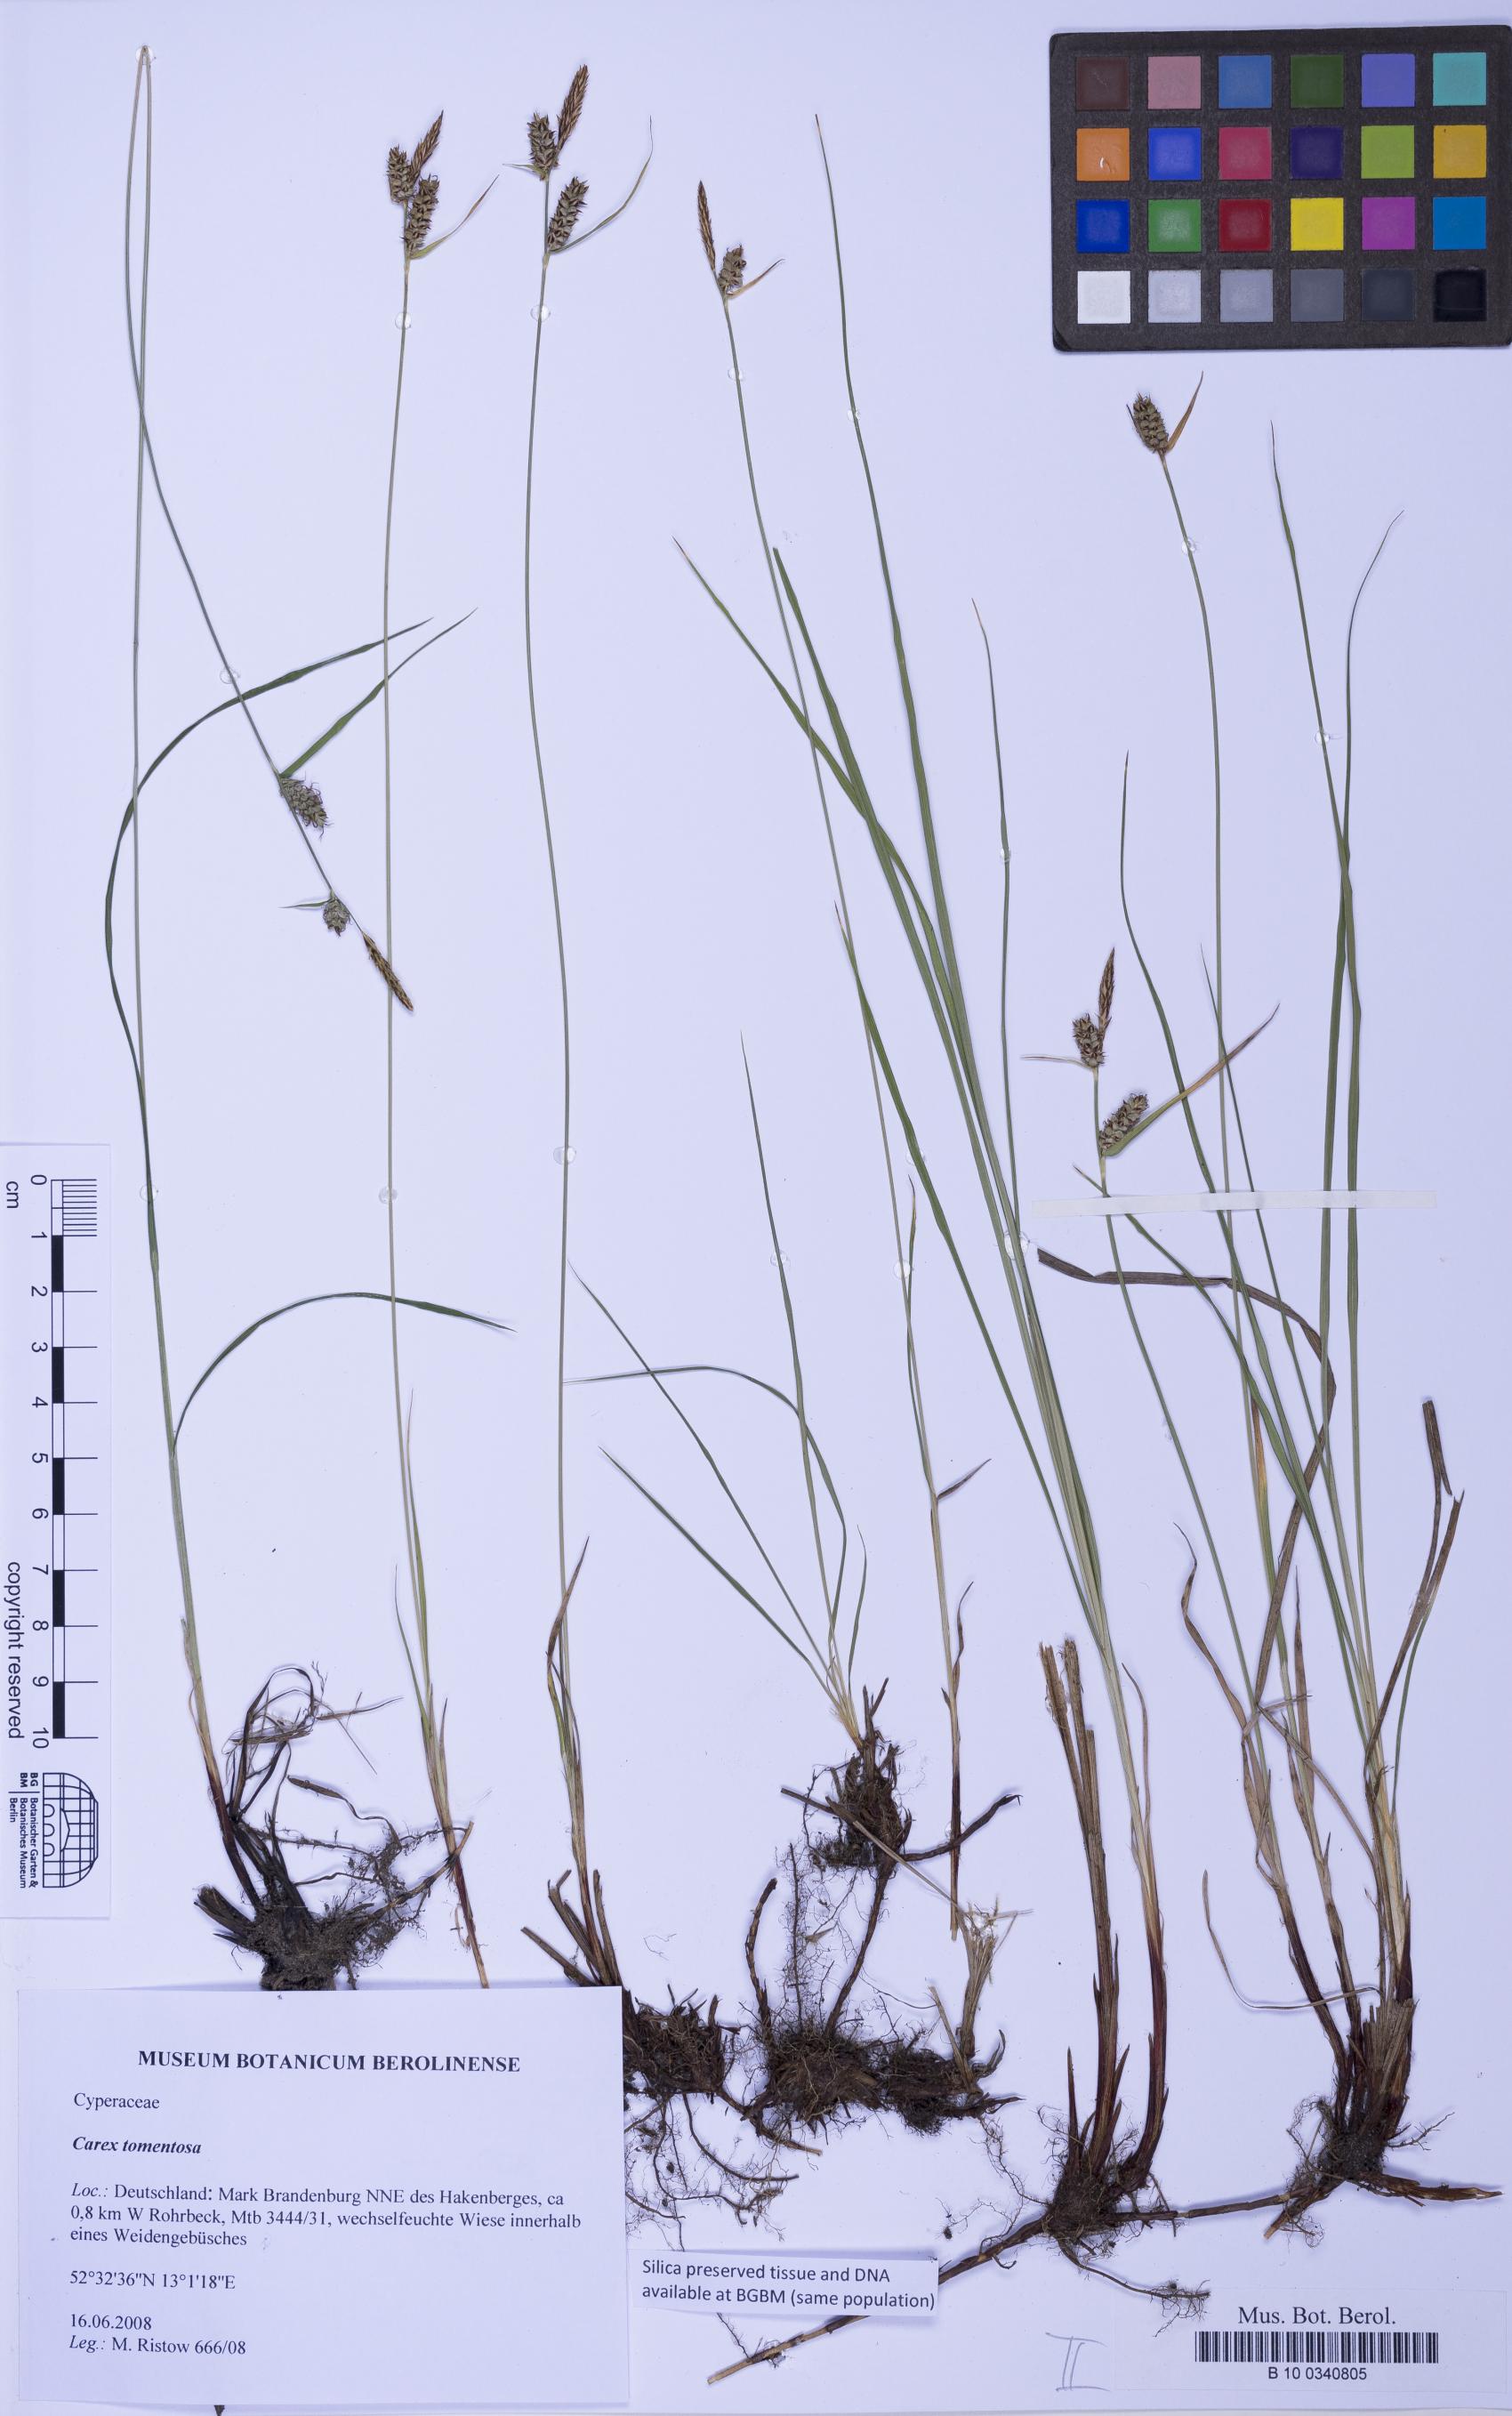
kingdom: Plantae
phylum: Tracheophyta
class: Liliopsida
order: Poales
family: Cyperaceae
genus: Carex
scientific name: Carex tomentosa
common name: Downy-fruited sedge
